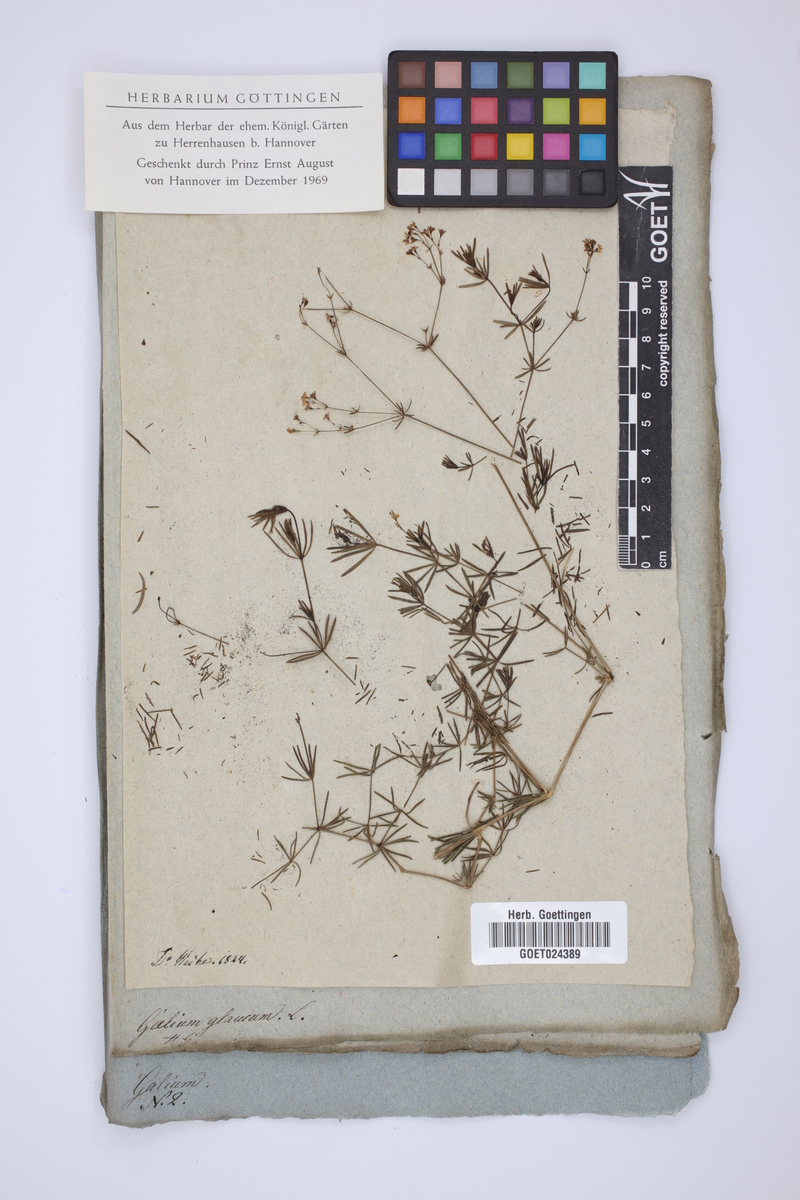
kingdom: Plantae
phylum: Tracheophyta
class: Magnoliopsida
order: Gentianales
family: Rubiaceae
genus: Galium
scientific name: Galium glaucum
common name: Waxy bedstraw
